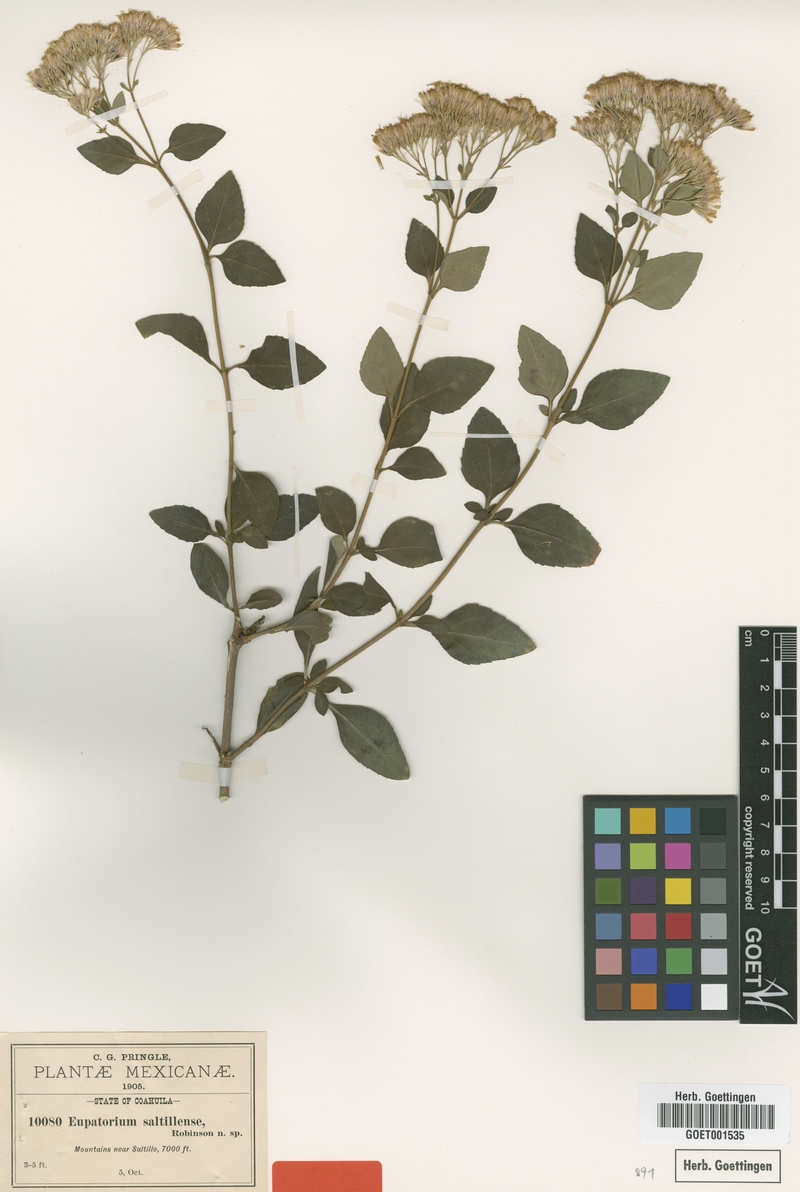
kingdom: Plantae
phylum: Tracheophyta
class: Magnoliopsida
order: Asterales
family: Asteraceae
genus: Ageratina
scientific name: Ageratina saltillensis
